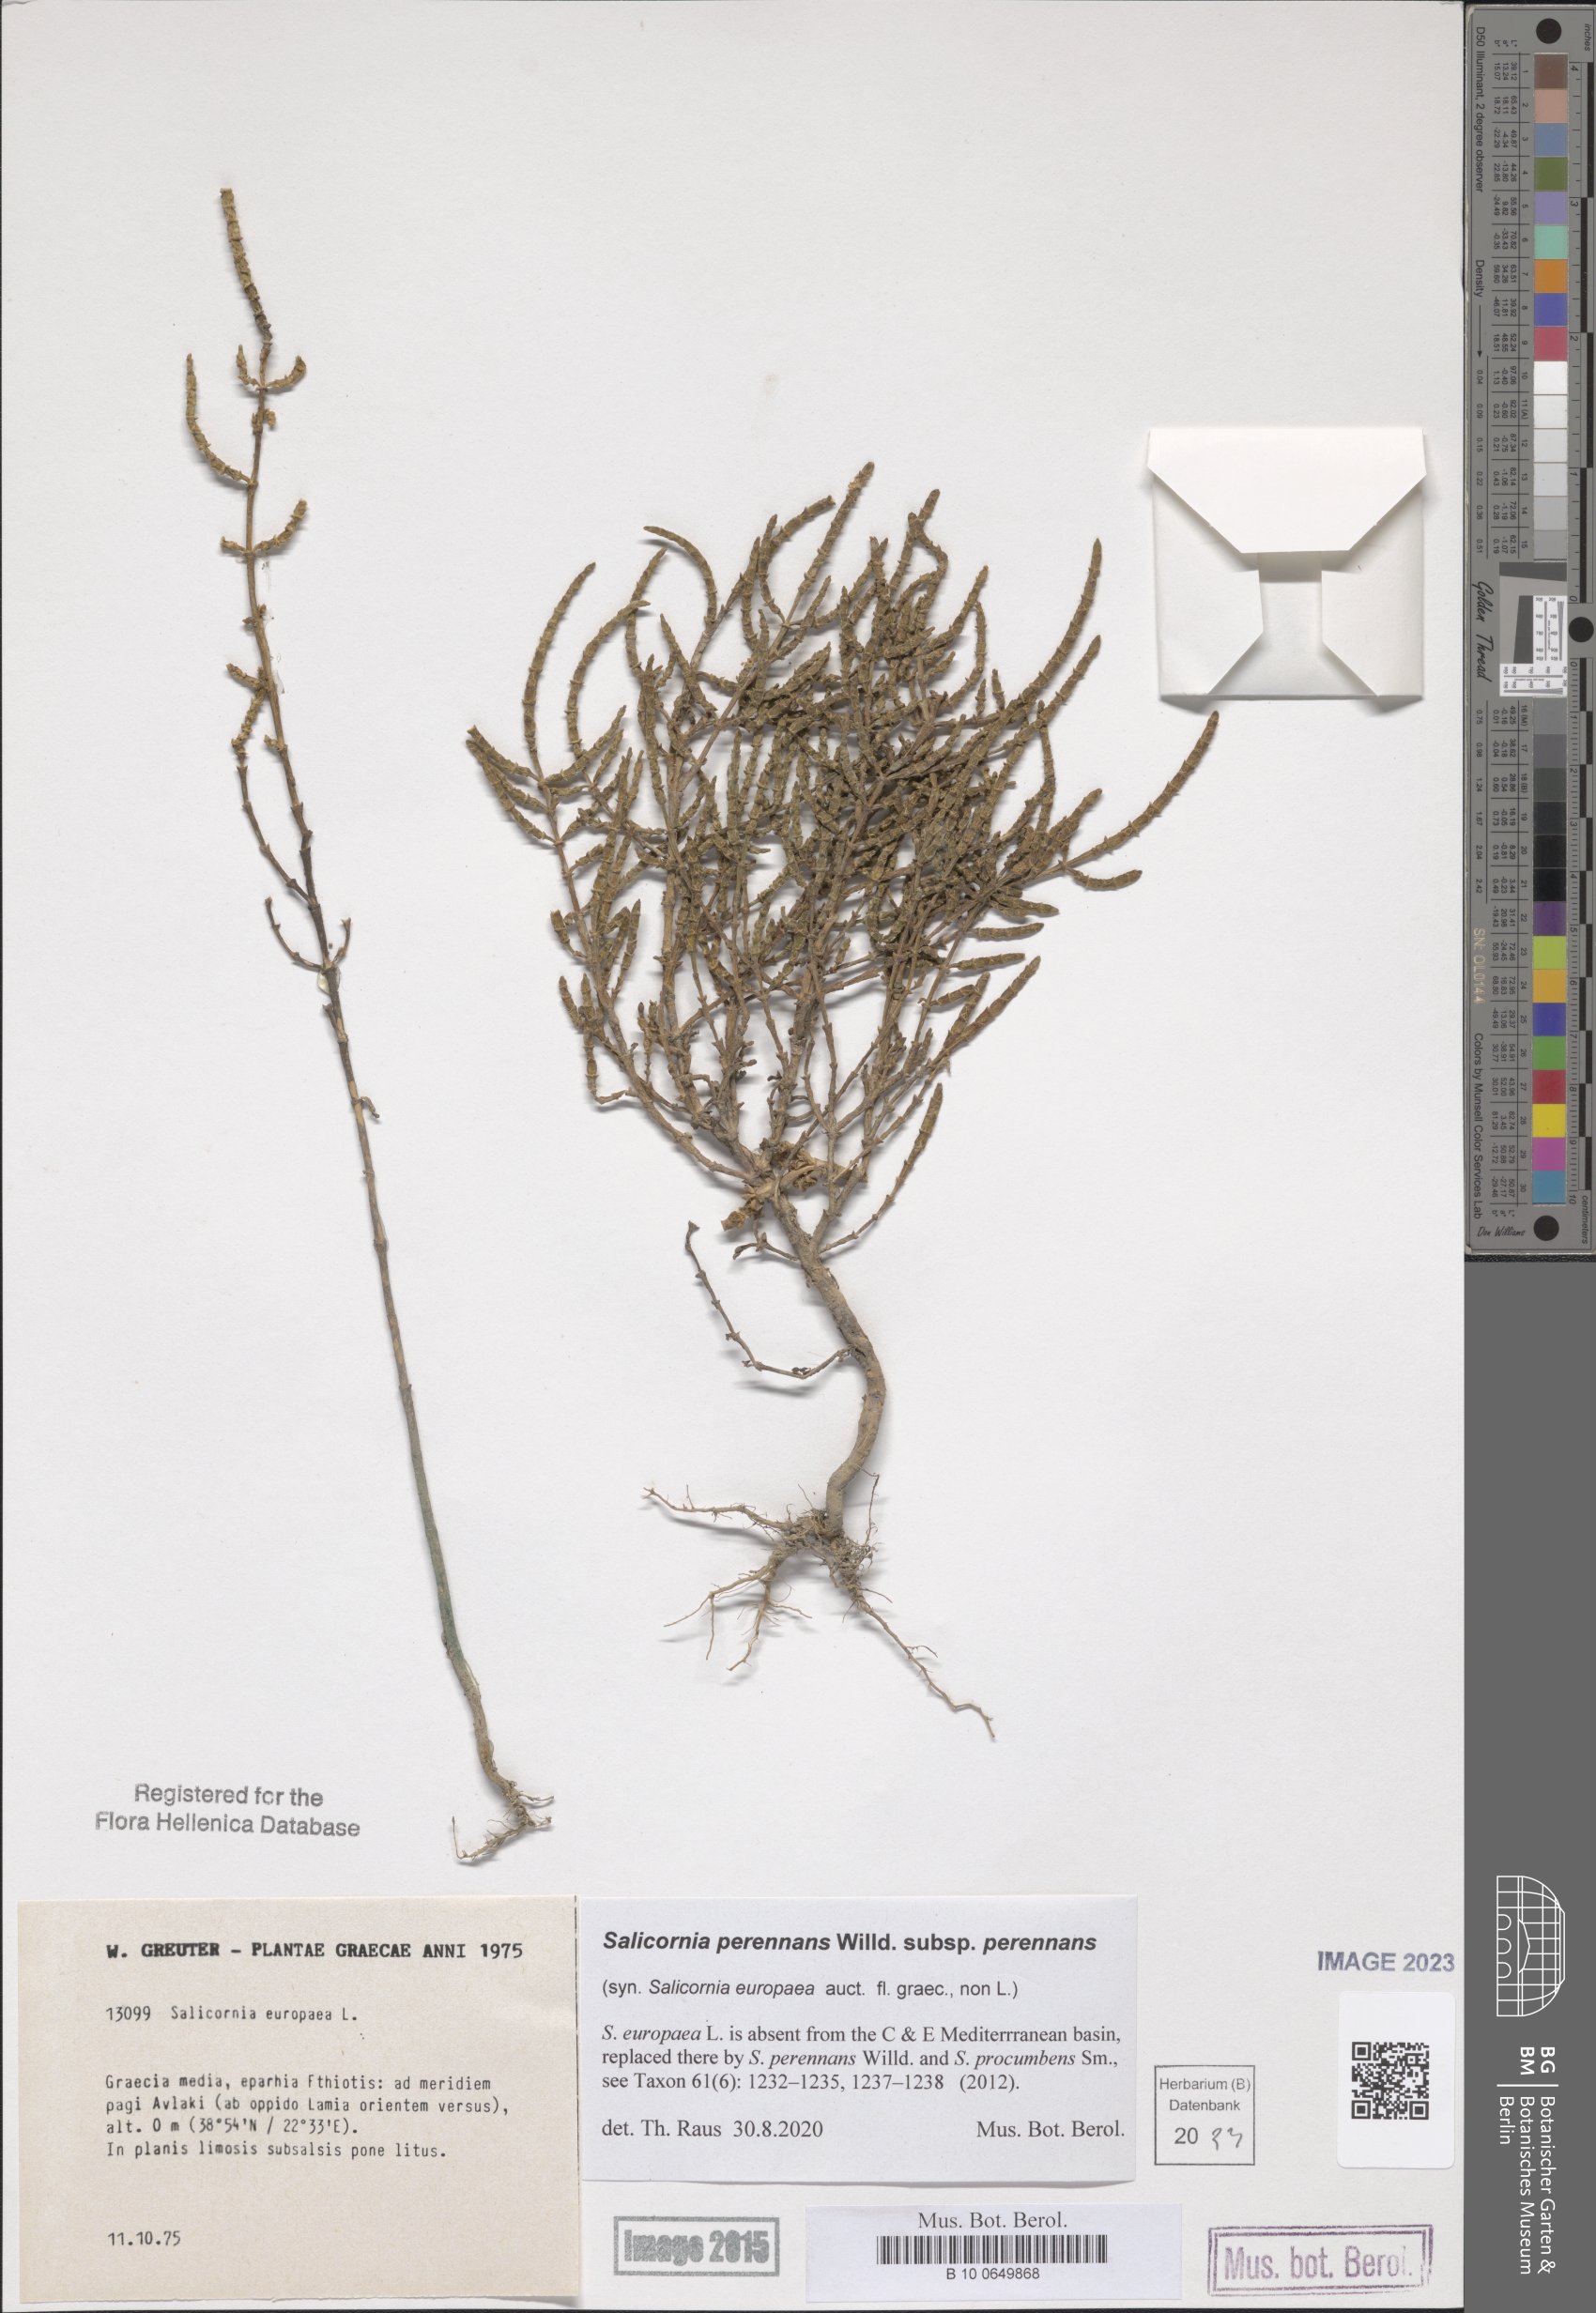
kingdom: Plantae
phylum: Tracheophyta
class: Magnoliopsida
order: Caryophyllales
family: Amaranthaceae
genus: Salicornia
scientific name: Salicornia perennans
